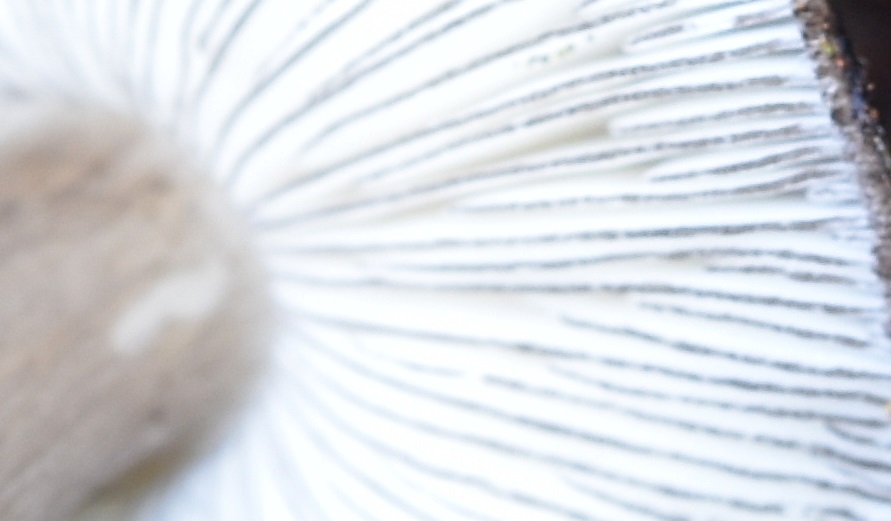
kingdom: Fungi
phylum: Basidiomycota
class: Agaricomycetes
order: Agaricales
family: Pluteaceae
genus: Pluteus
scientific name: Pluteus atromarginatus
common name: sortrandet skærmhat
